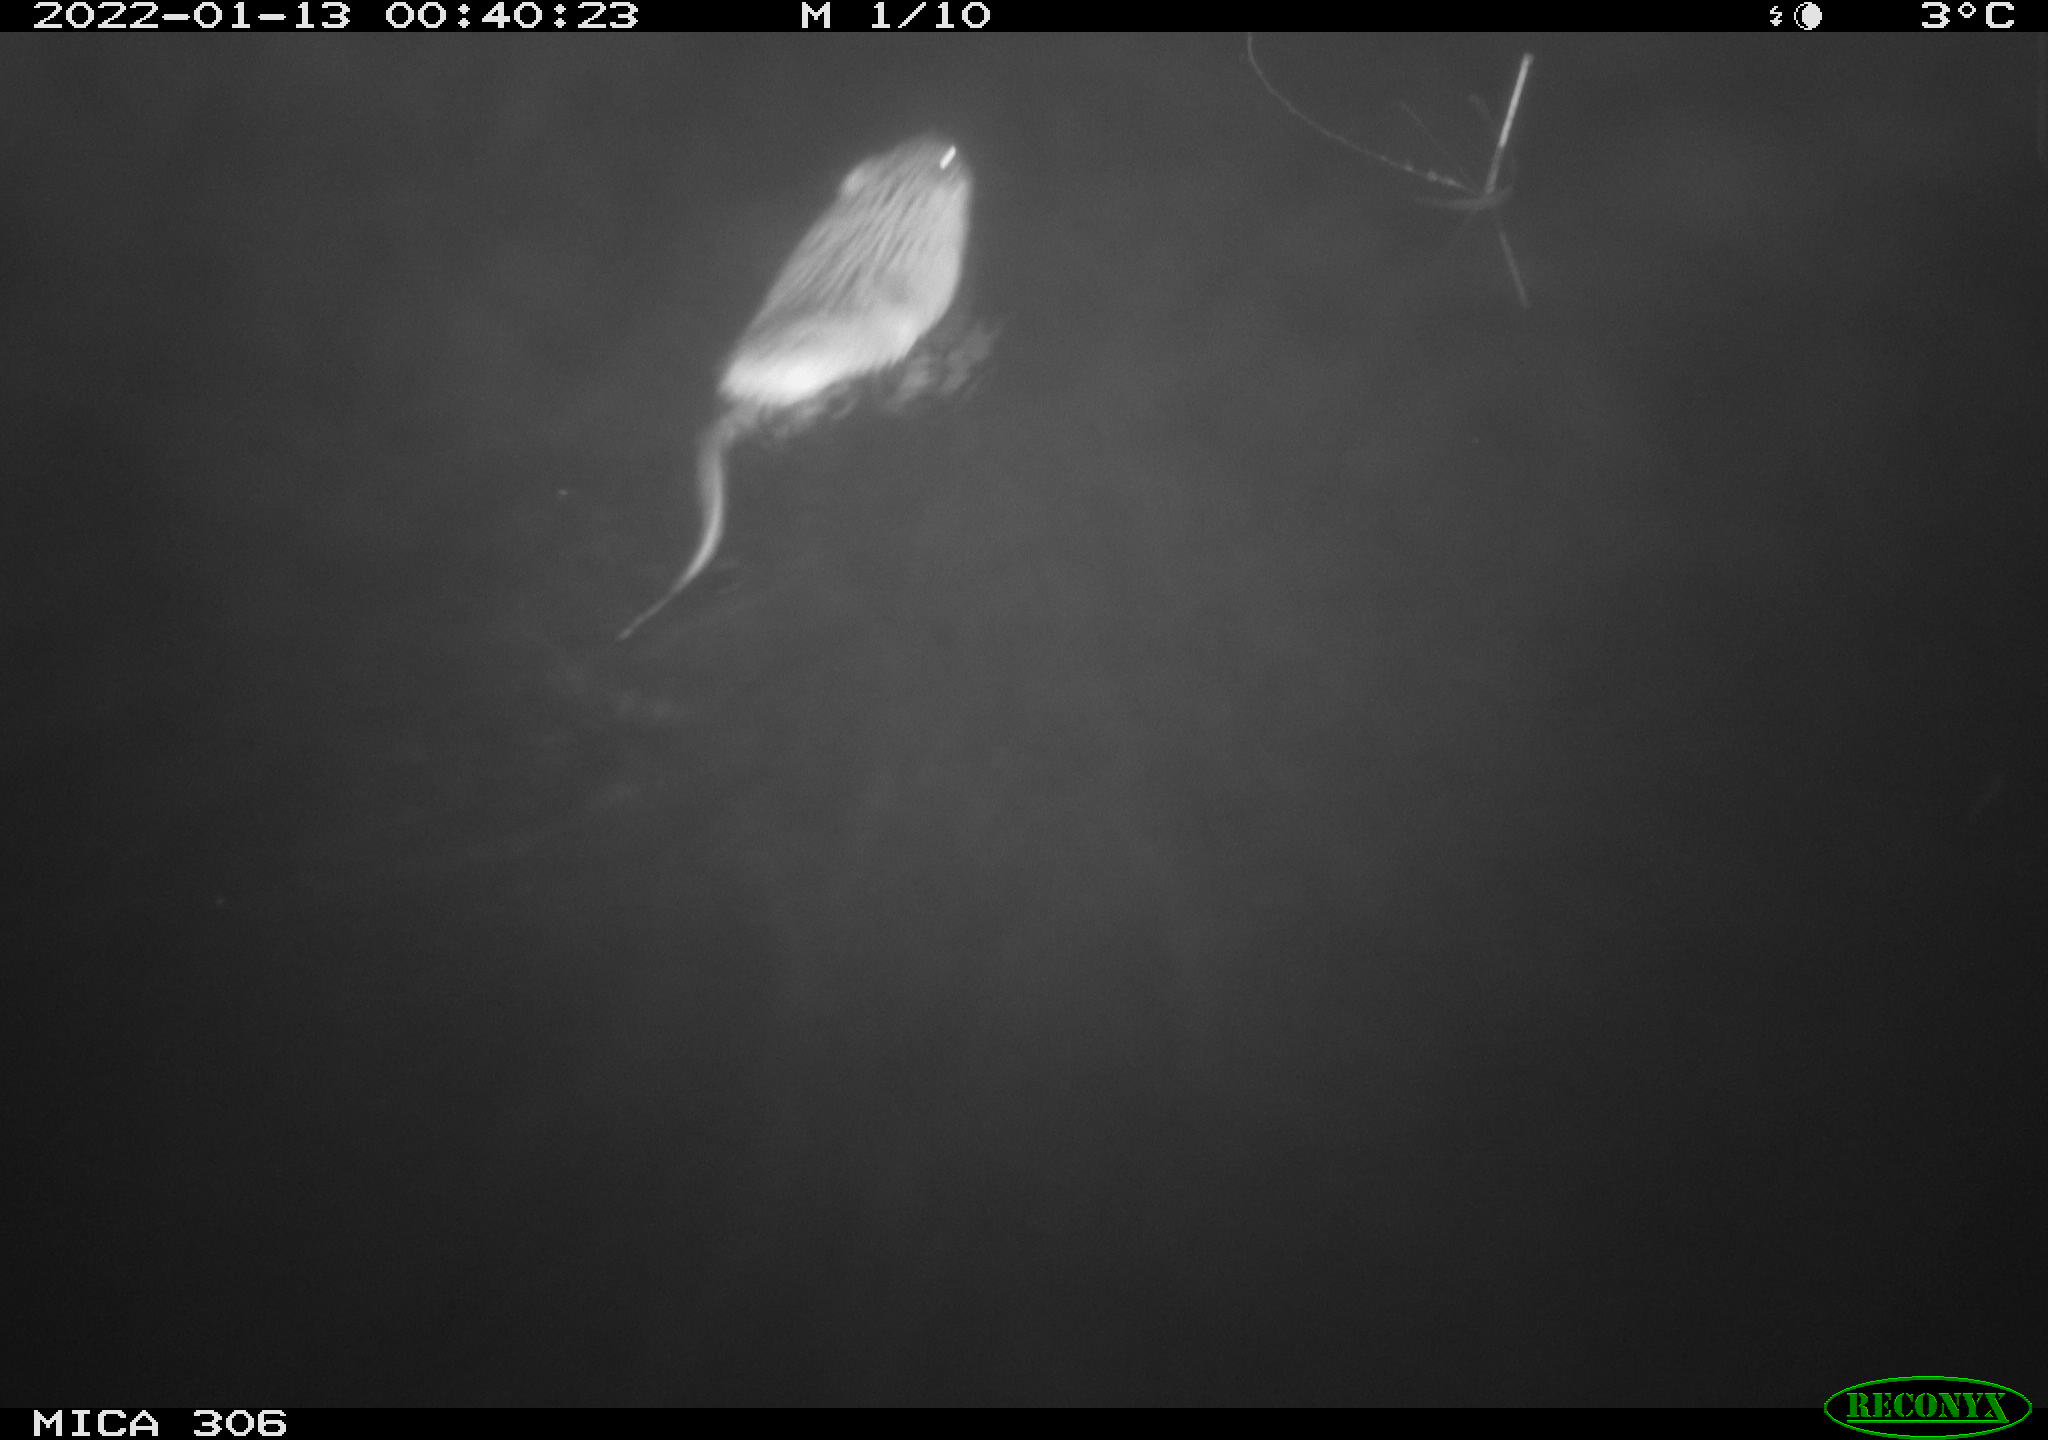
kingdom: Animalia
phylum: Chordata
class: Mammalia
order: Rodentia
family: Cricetidae
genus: Ondatra
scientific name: Ondatra zibethicus
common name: Muskrat
